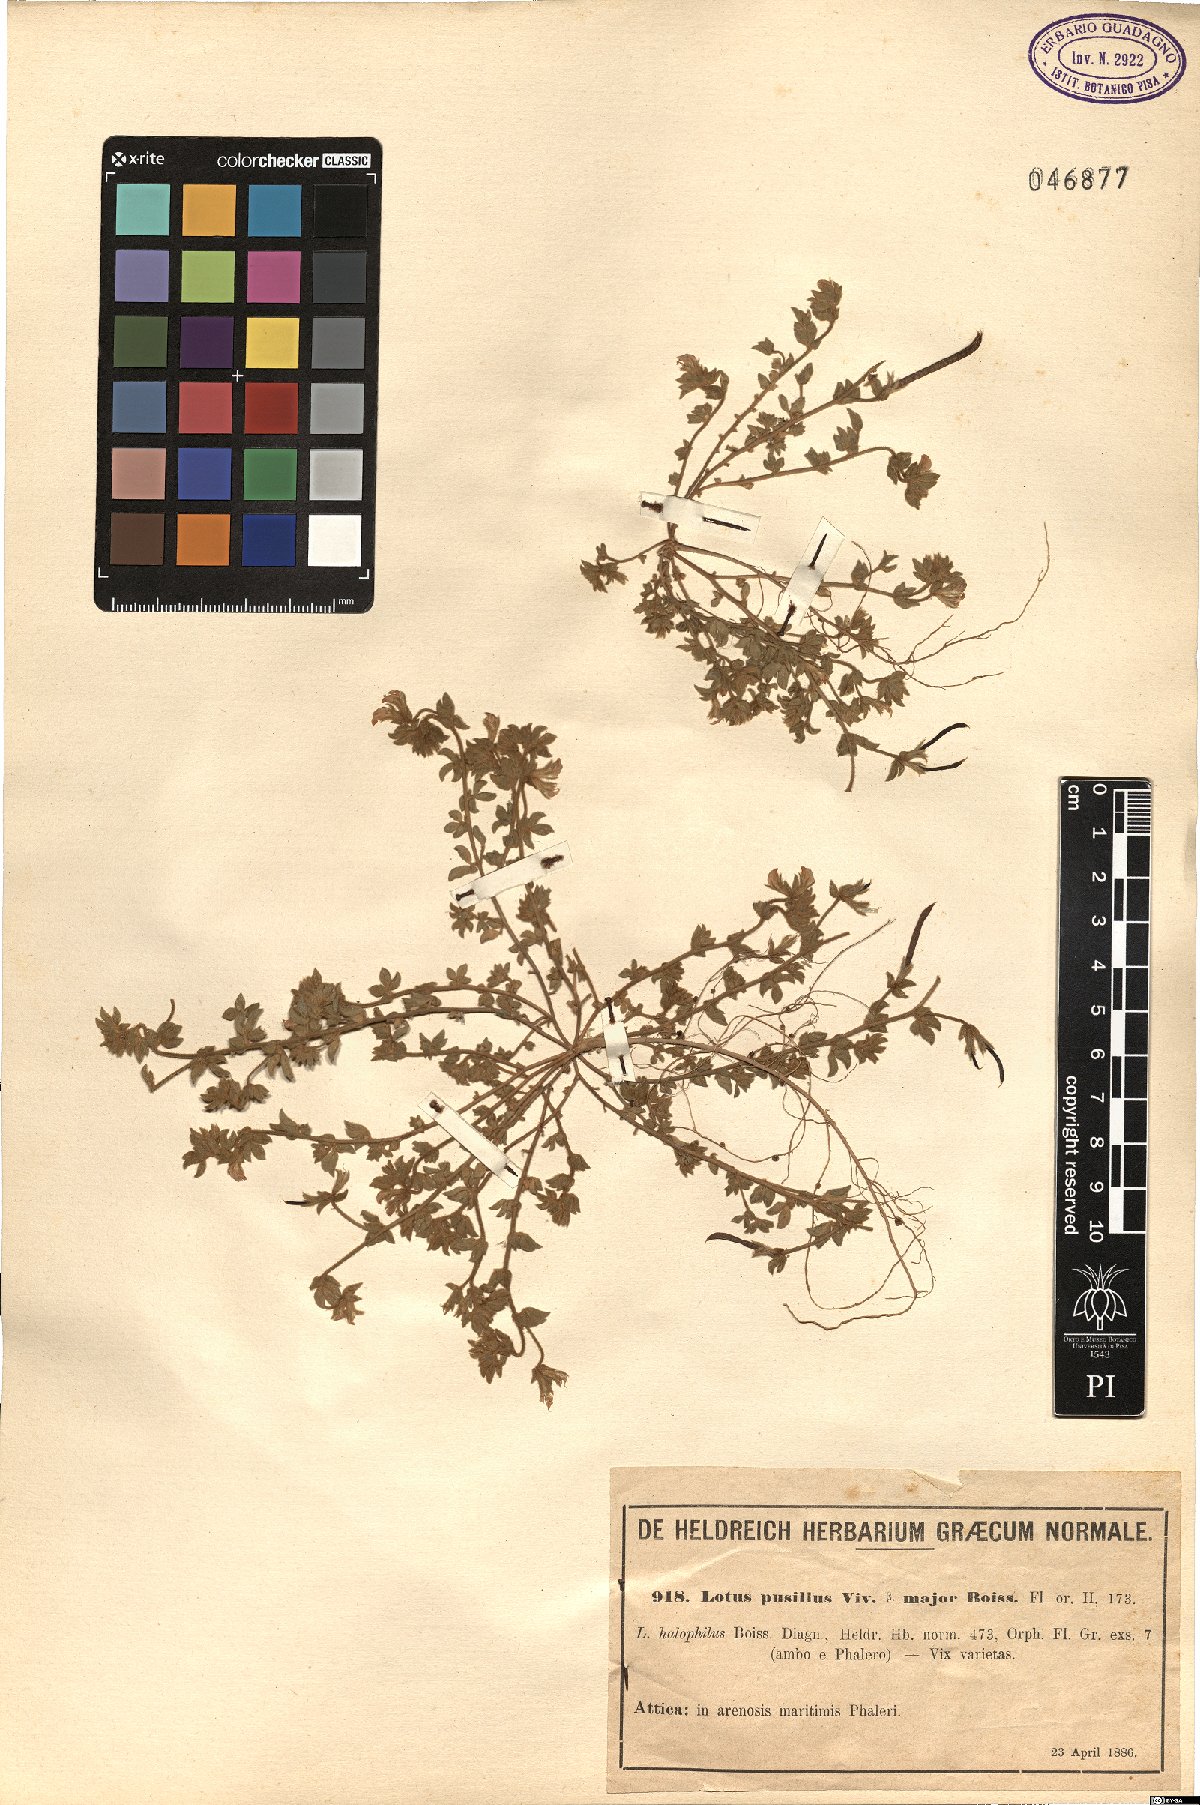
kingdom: Plantae
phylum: Tracheophyta
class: Magnoliopsida
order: Fabales
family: Fabaceae
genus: Lotus
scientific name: Lotus halophilus
